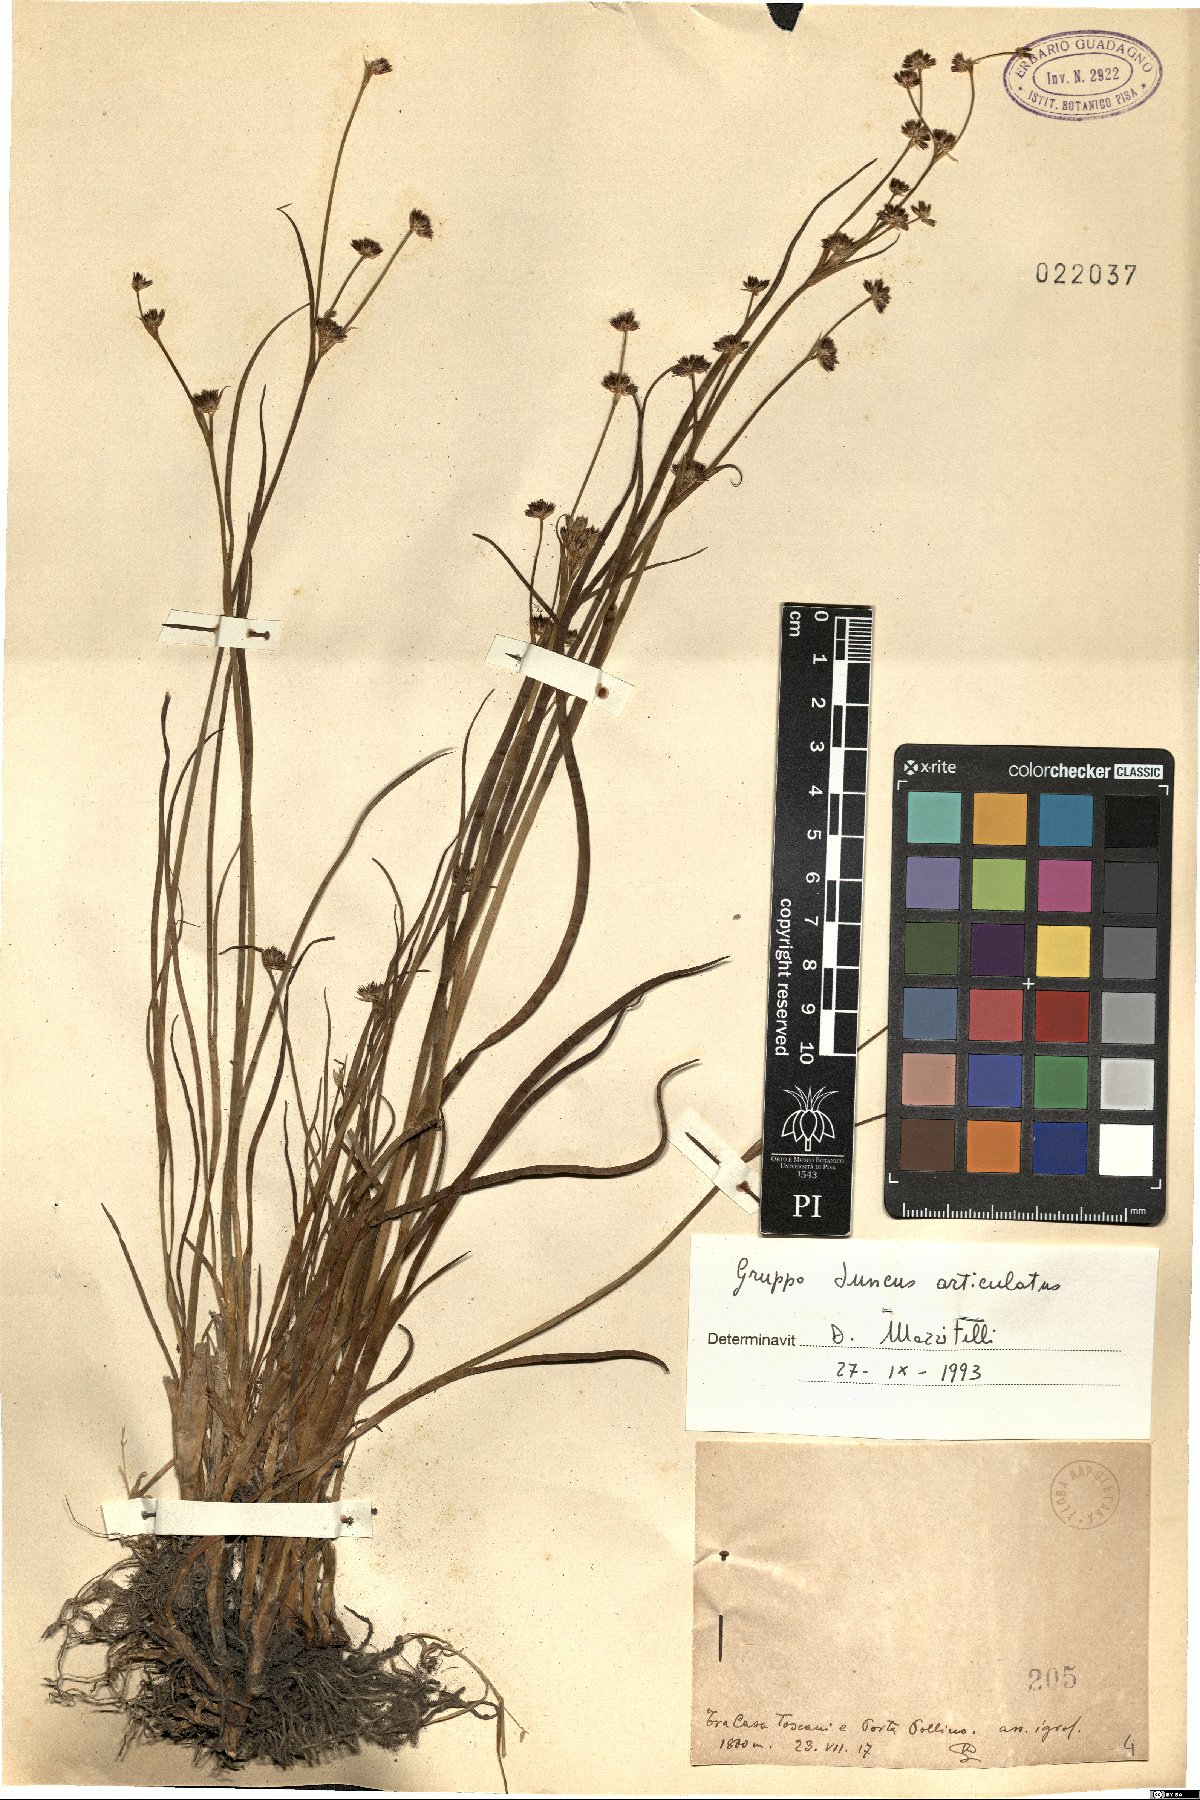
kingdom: Plantae
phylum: Tracheophyta
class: Liliopsida
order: Poales
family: Juncaceae
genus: Juncus
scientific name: Juncus articulatus
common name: Jointed rush
